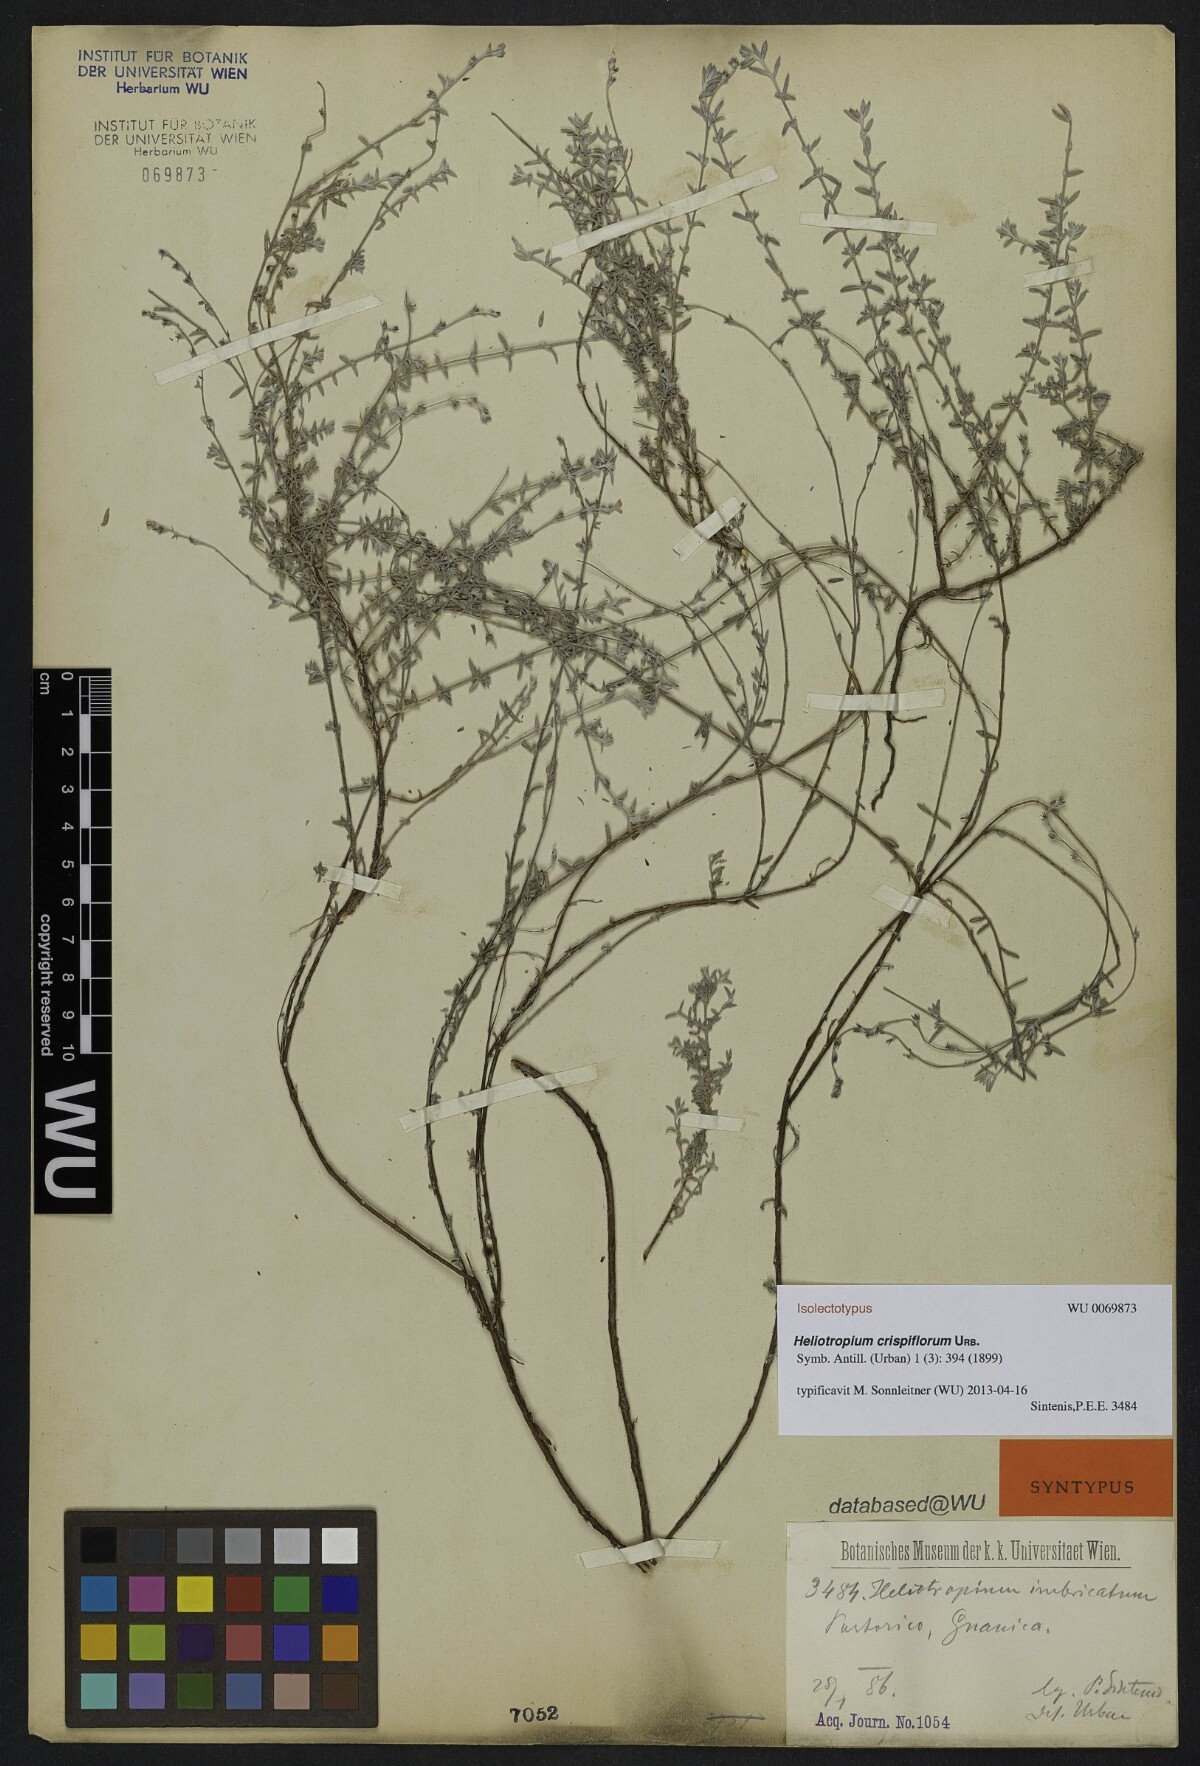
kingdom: Plantae
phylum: Tracheophyta
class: Magnoliopsida
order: Boraginales
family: Heliotropiaceae
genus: Euploca
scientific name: Euploca microphylla
